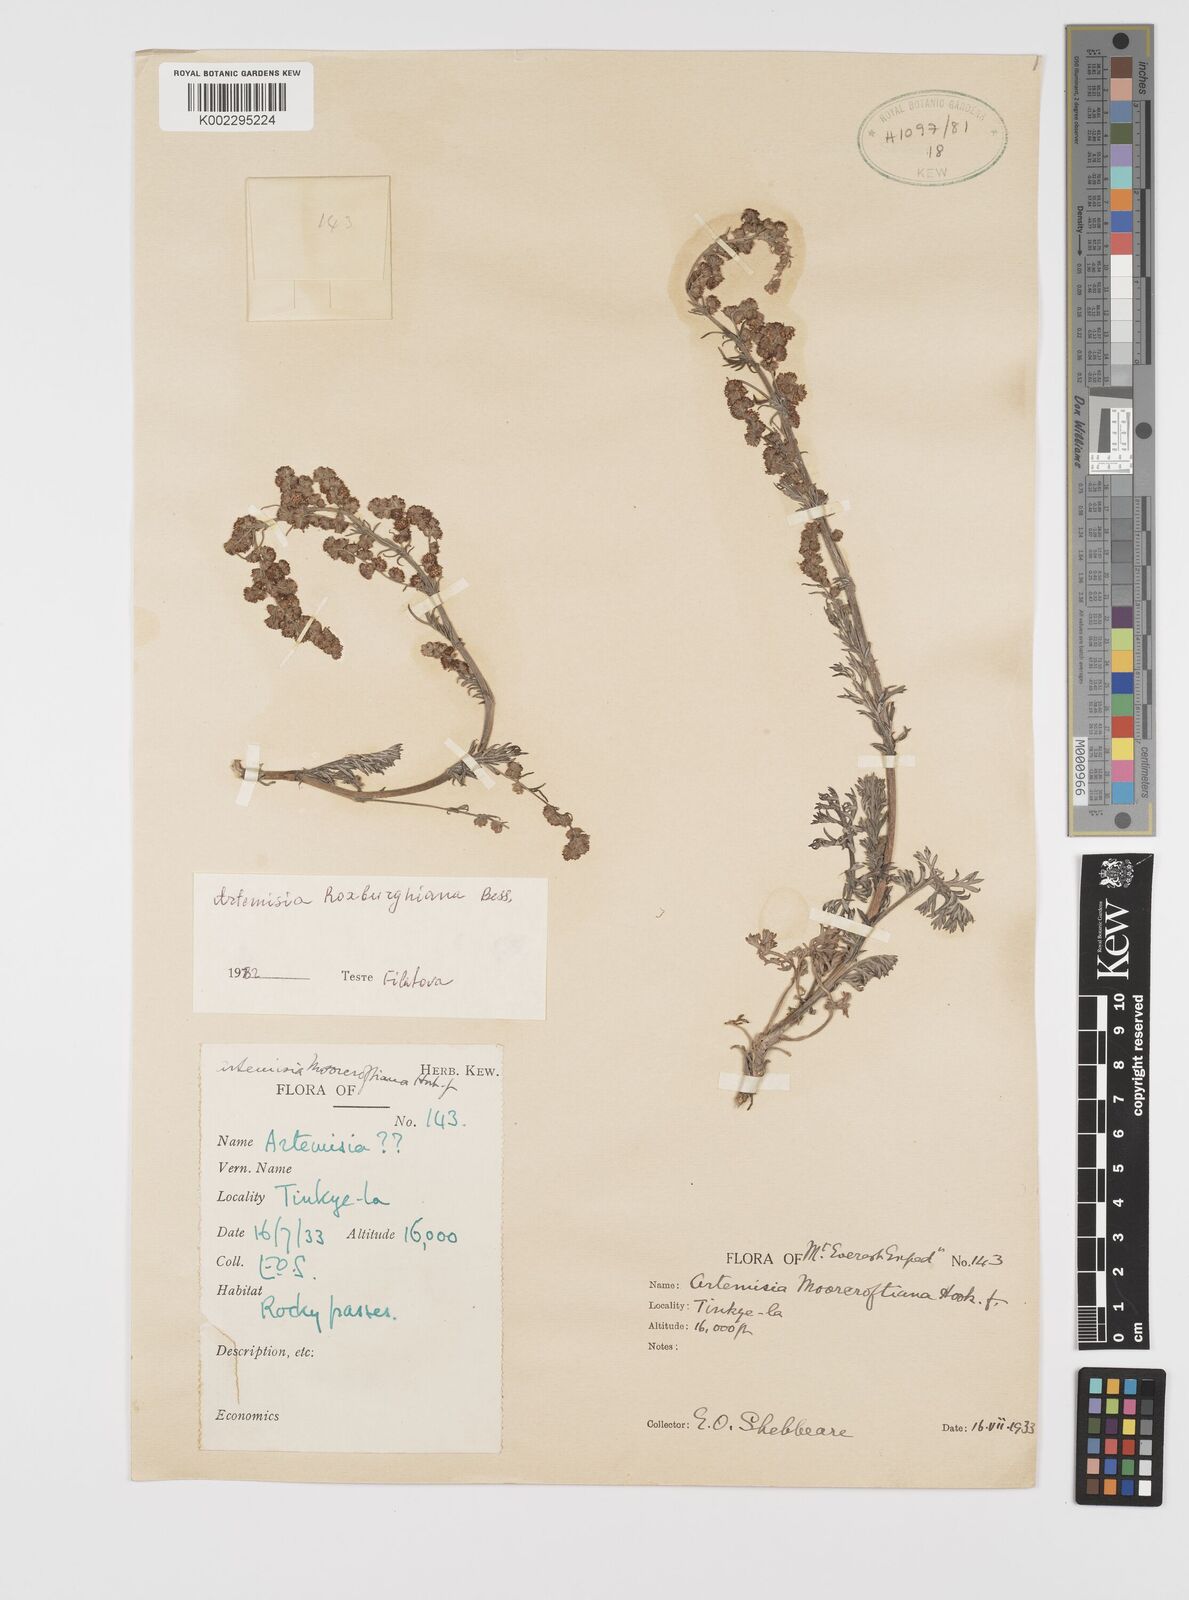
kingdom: Plantae
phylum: Tracheophyta
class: Magnoliopsida
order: Asterales
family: Asteraceae
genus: Artemisia
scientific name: Artemisia roxburghiana
